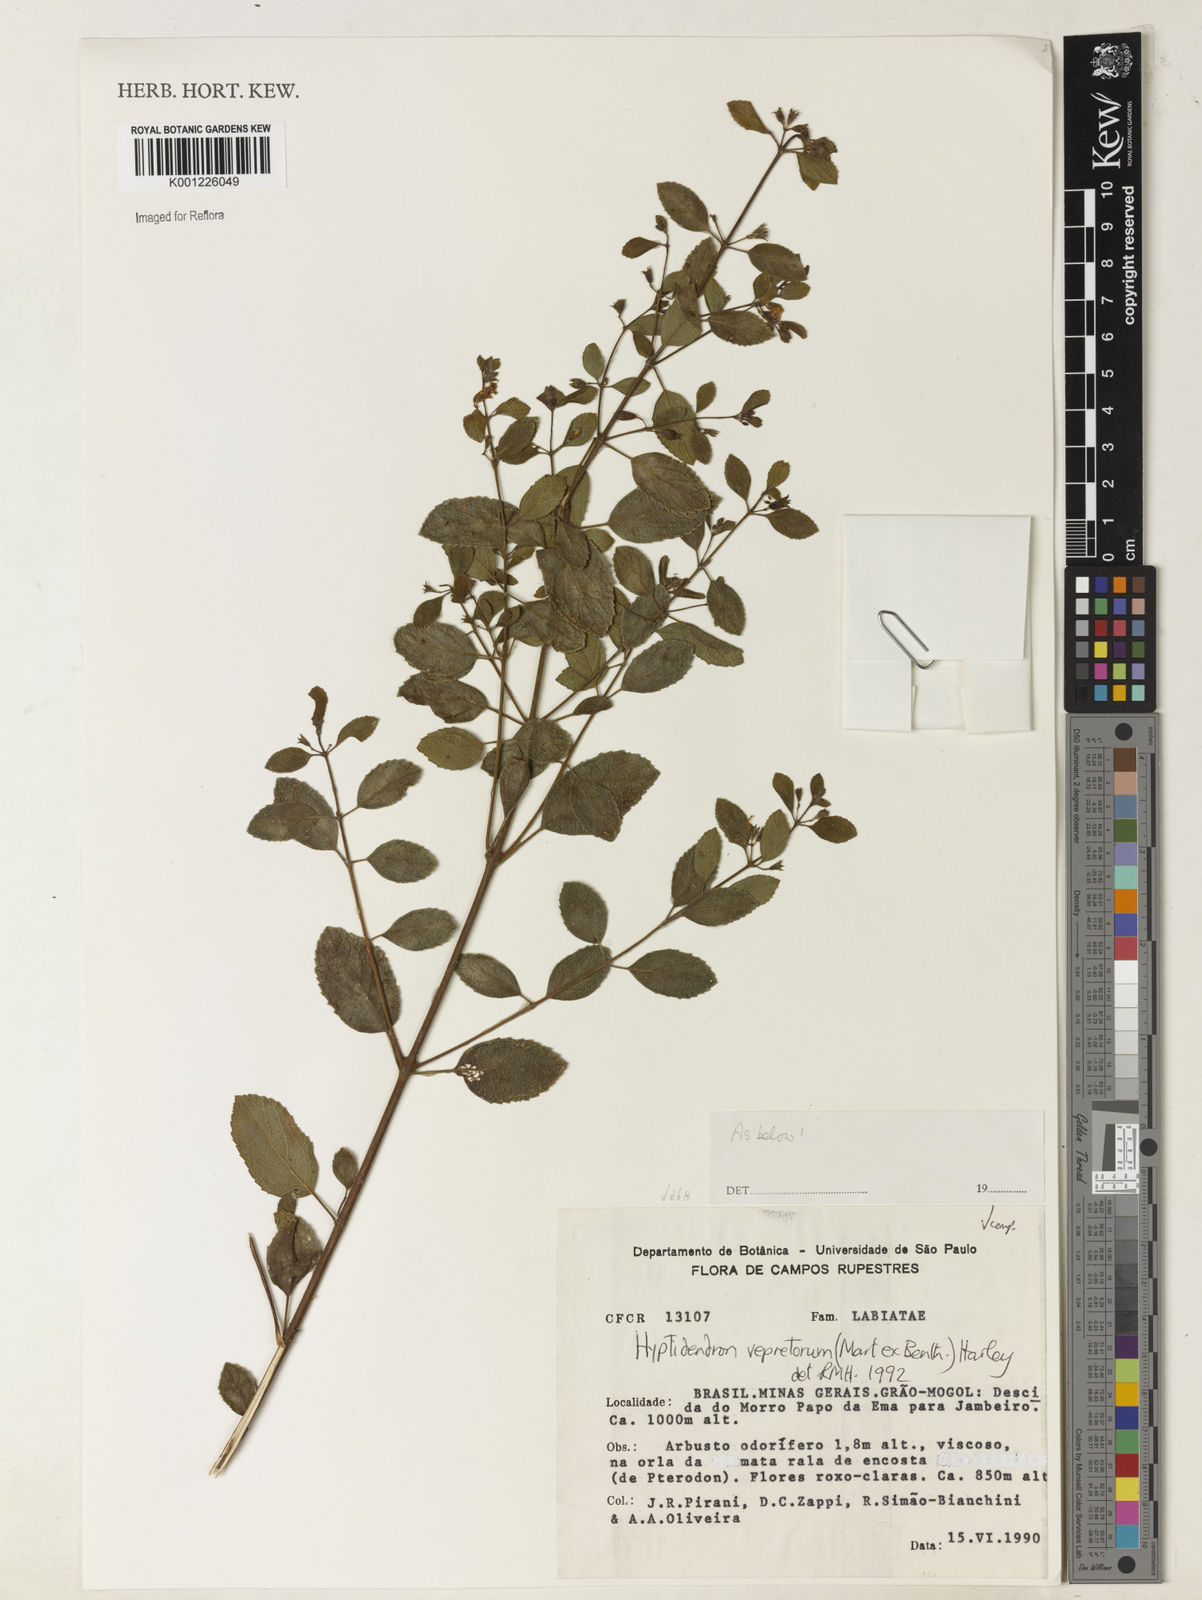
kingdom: Plantae
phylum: Tracheophyta
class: Magnoliopsida
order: Lamiales
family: Lamiaceae
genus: Hyptidendron
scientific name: Hyptidendron vepretorum
